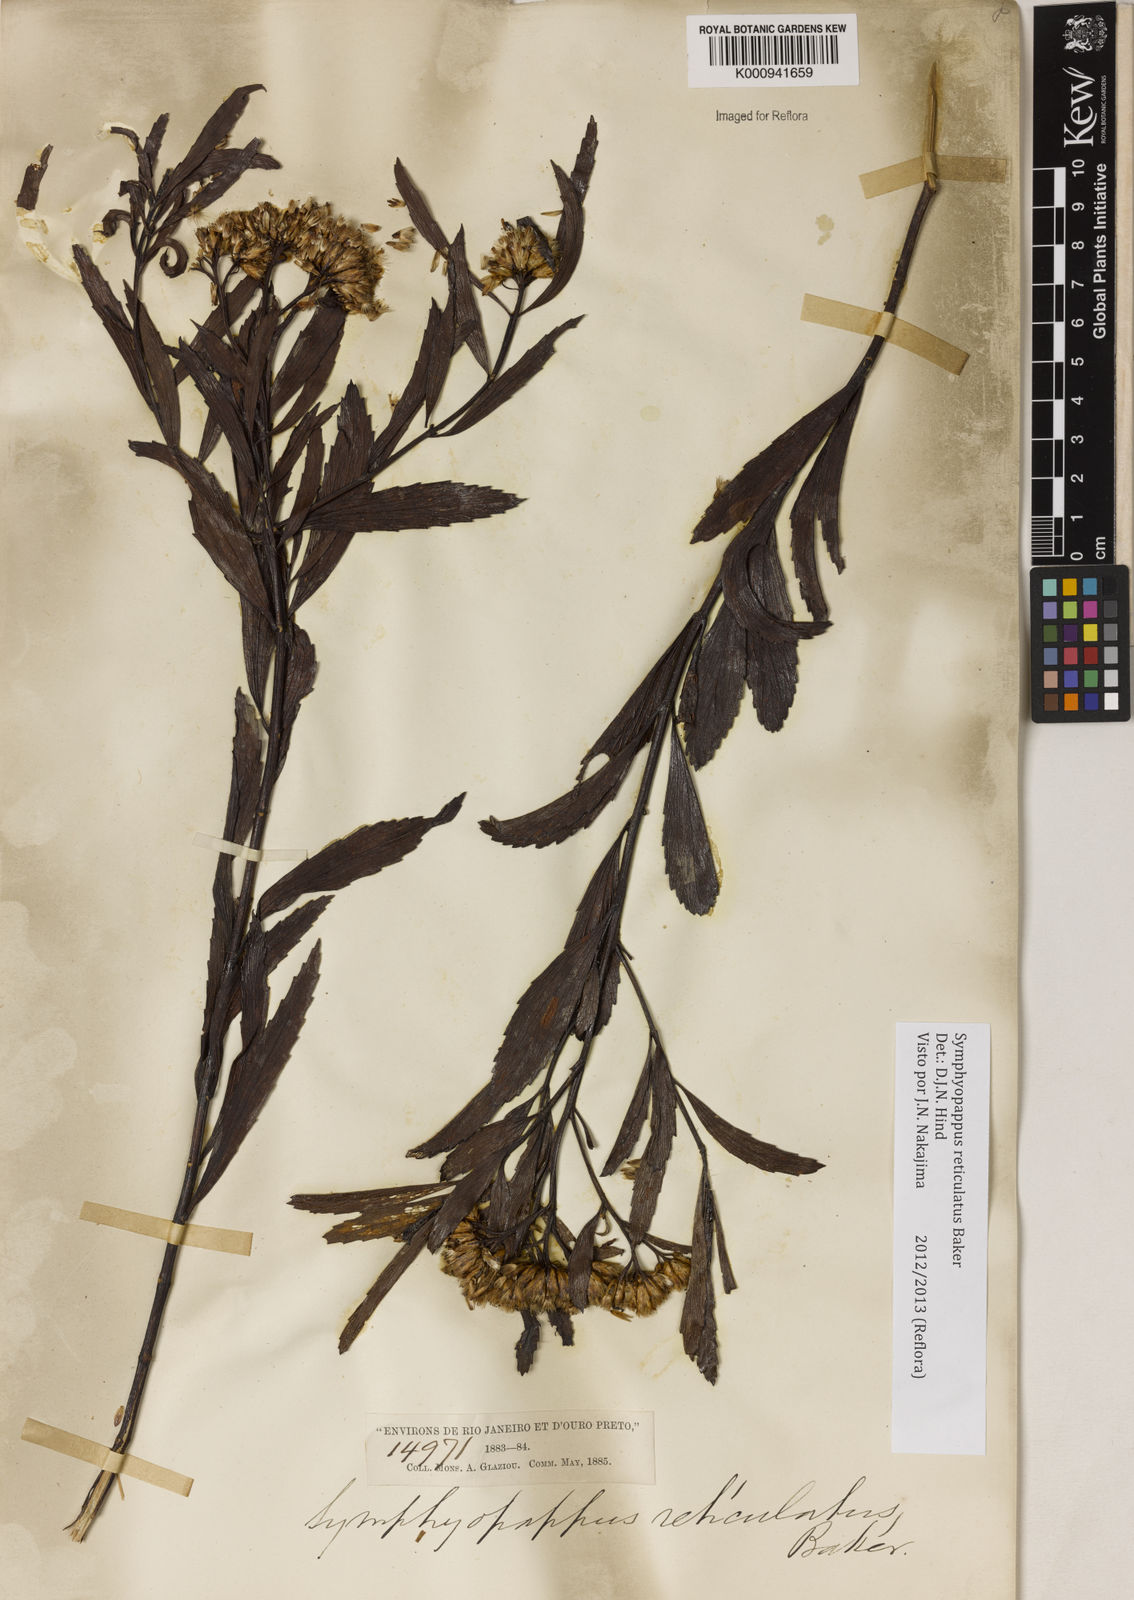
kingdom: Plantae
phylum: Tracheophyta
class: Magnoliopsida
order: Asterales
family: Asteraceae
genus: Symphyopappus
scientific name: Symphyopappus
